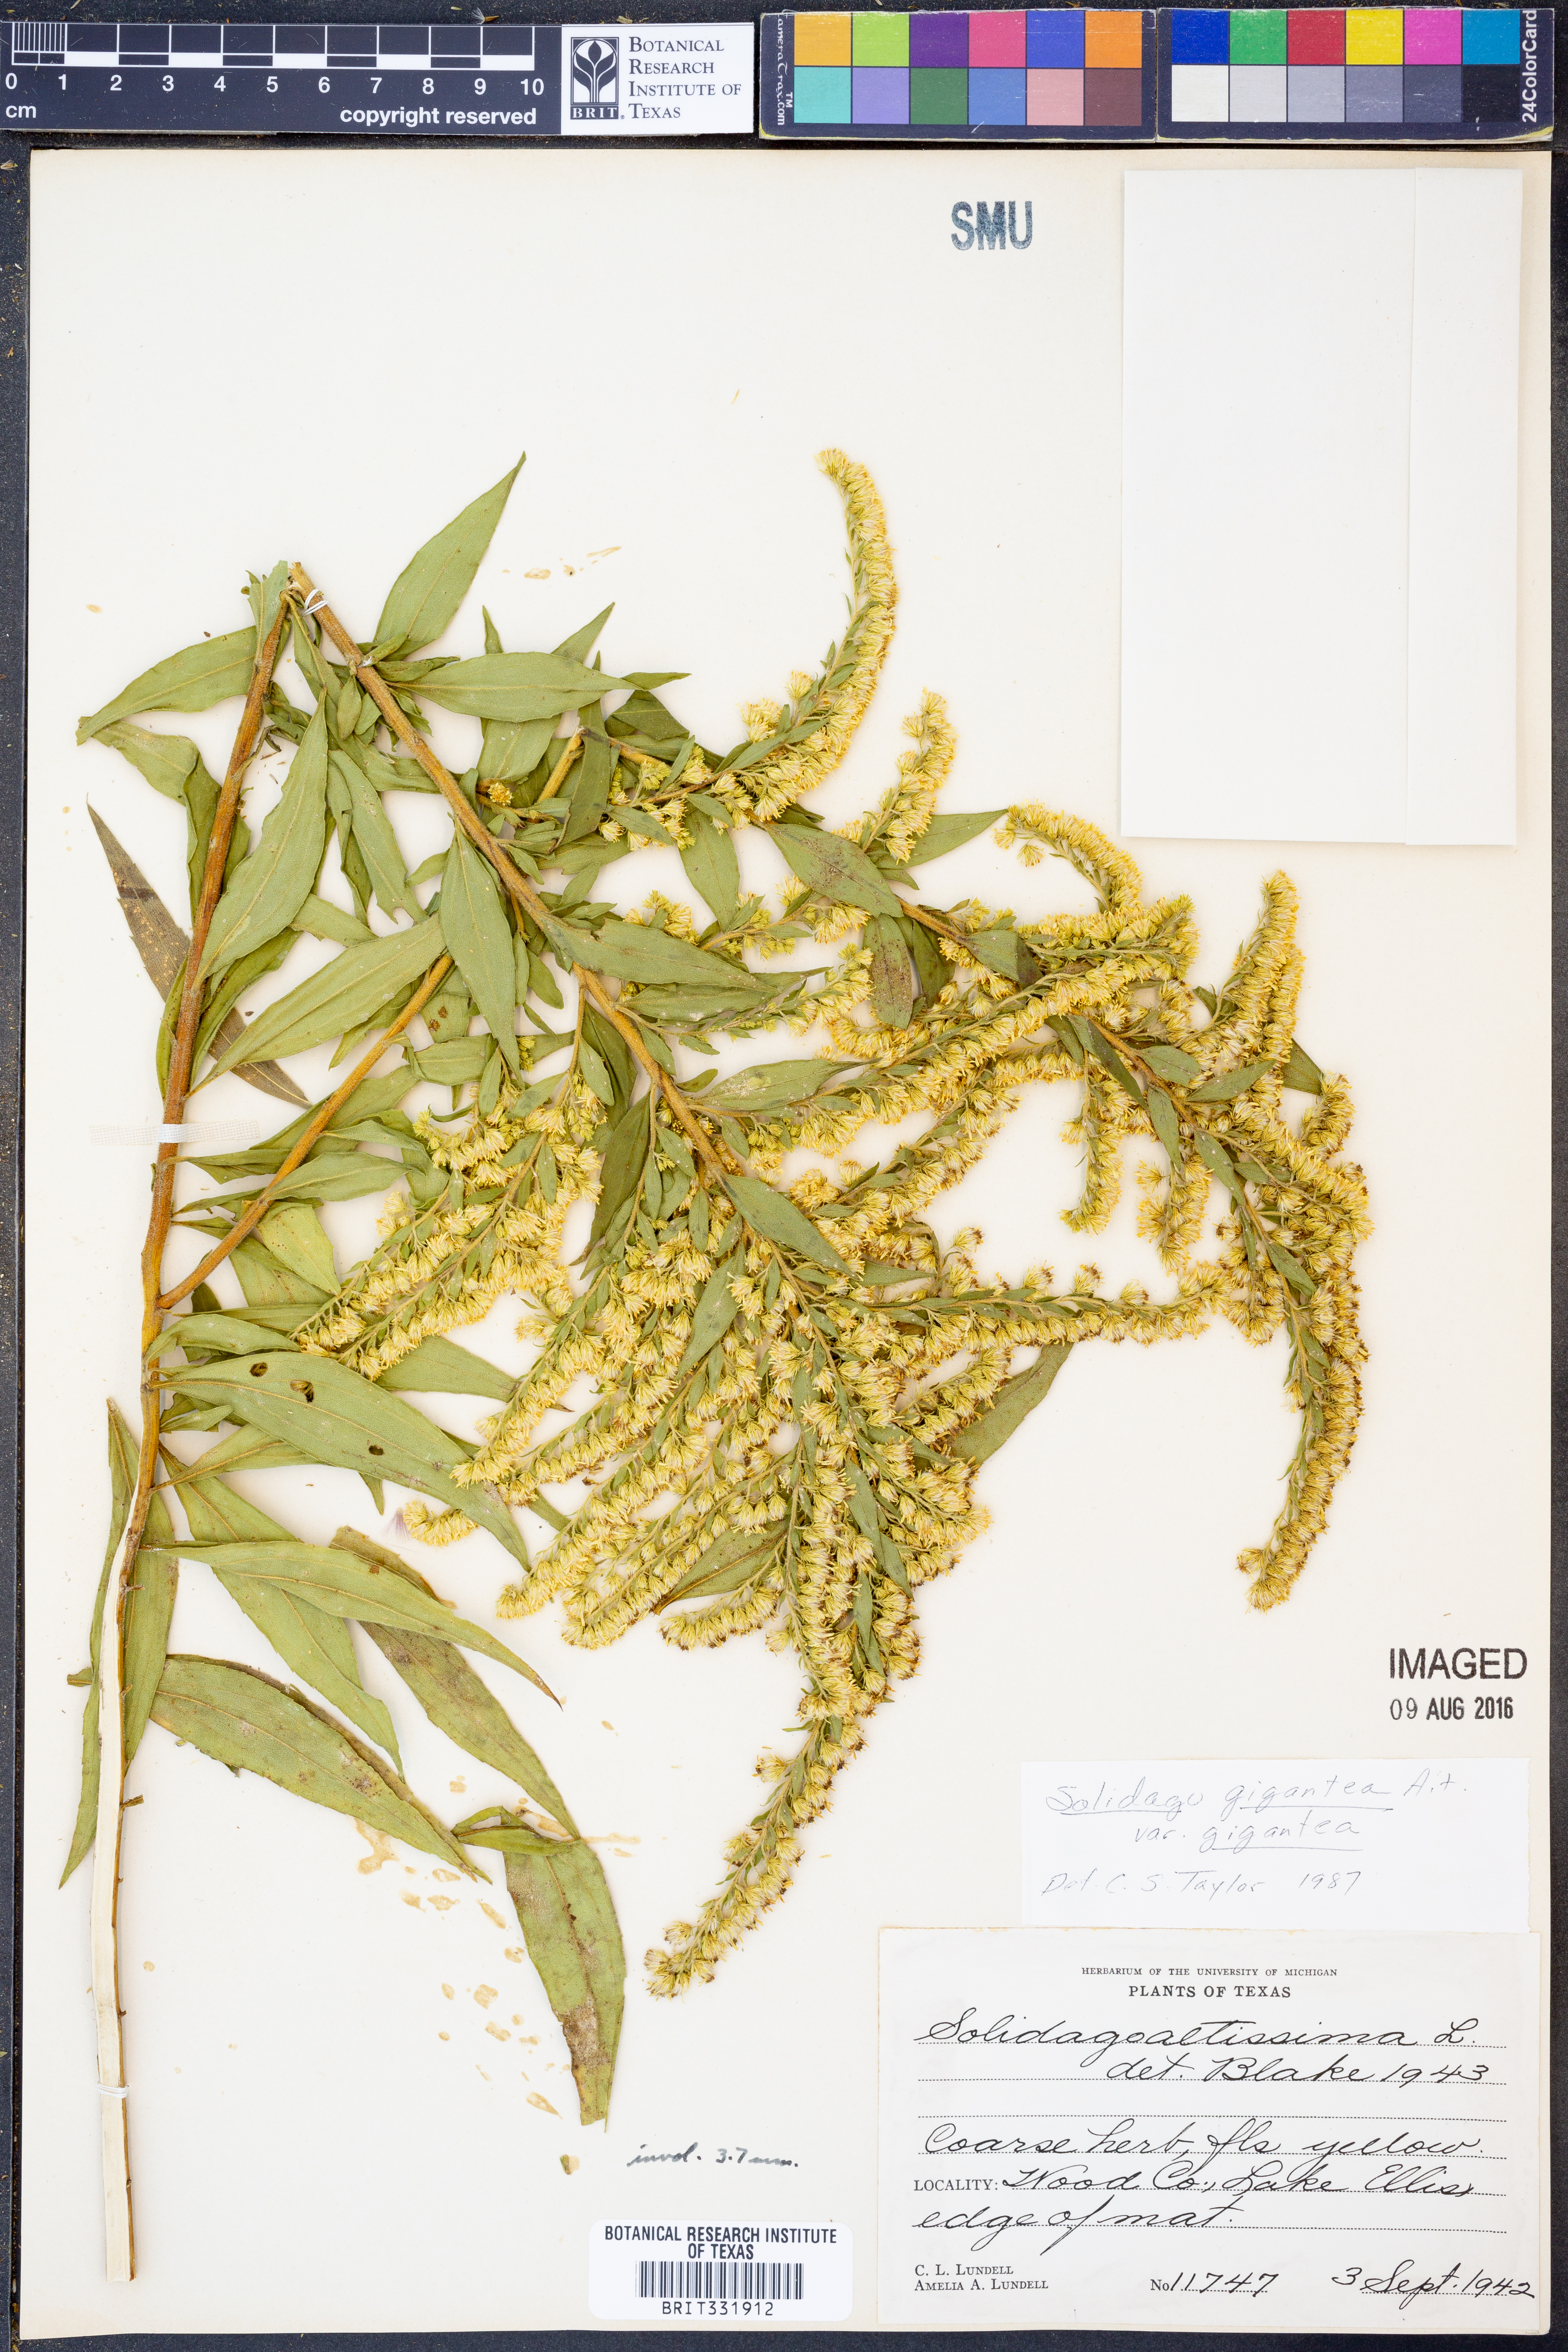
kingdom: Plantae
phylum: Tracheophyta
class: Magnoliopsida
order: Asterales
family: Asteraceae
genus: Solidago
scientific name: Solidago gigantea
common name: Giant goldenrod
